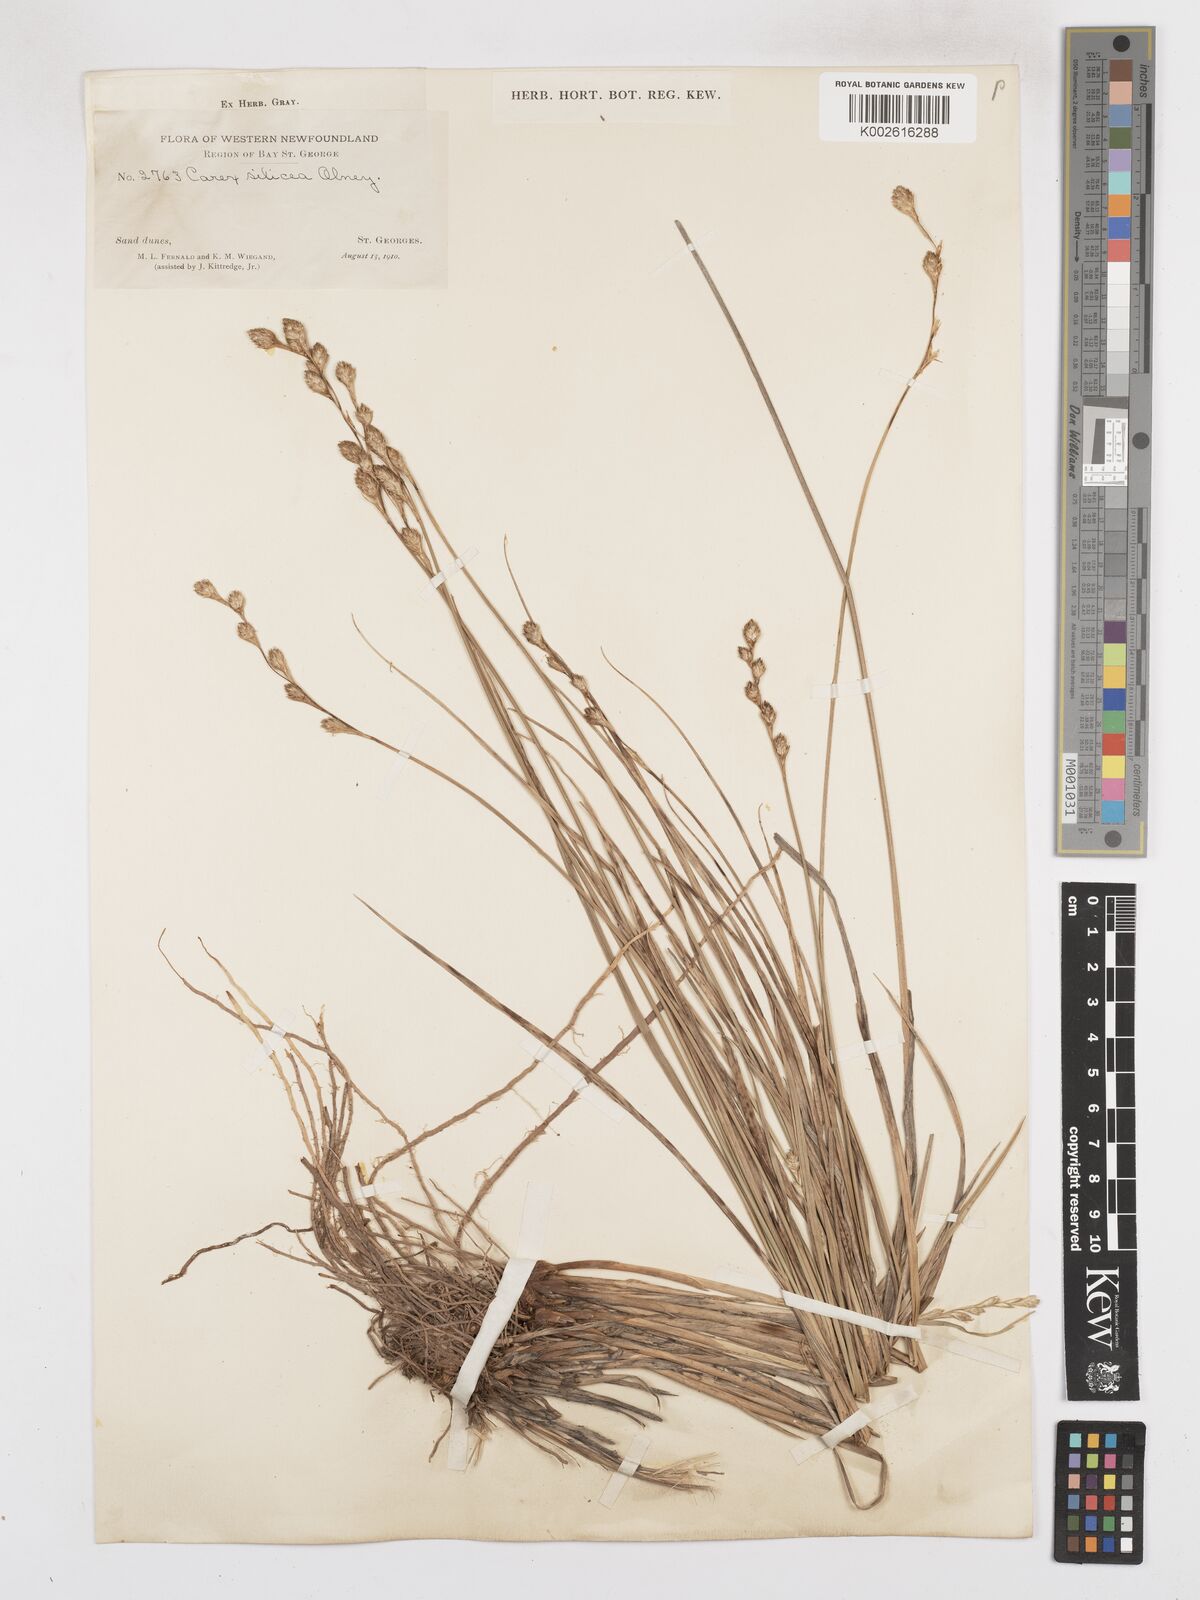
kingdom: Plantae
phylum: Tracheophyta
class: Liliopsida
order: Poales
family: Cyperaceae
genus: Carex
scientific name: Carex silicea
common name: Beach sedge
